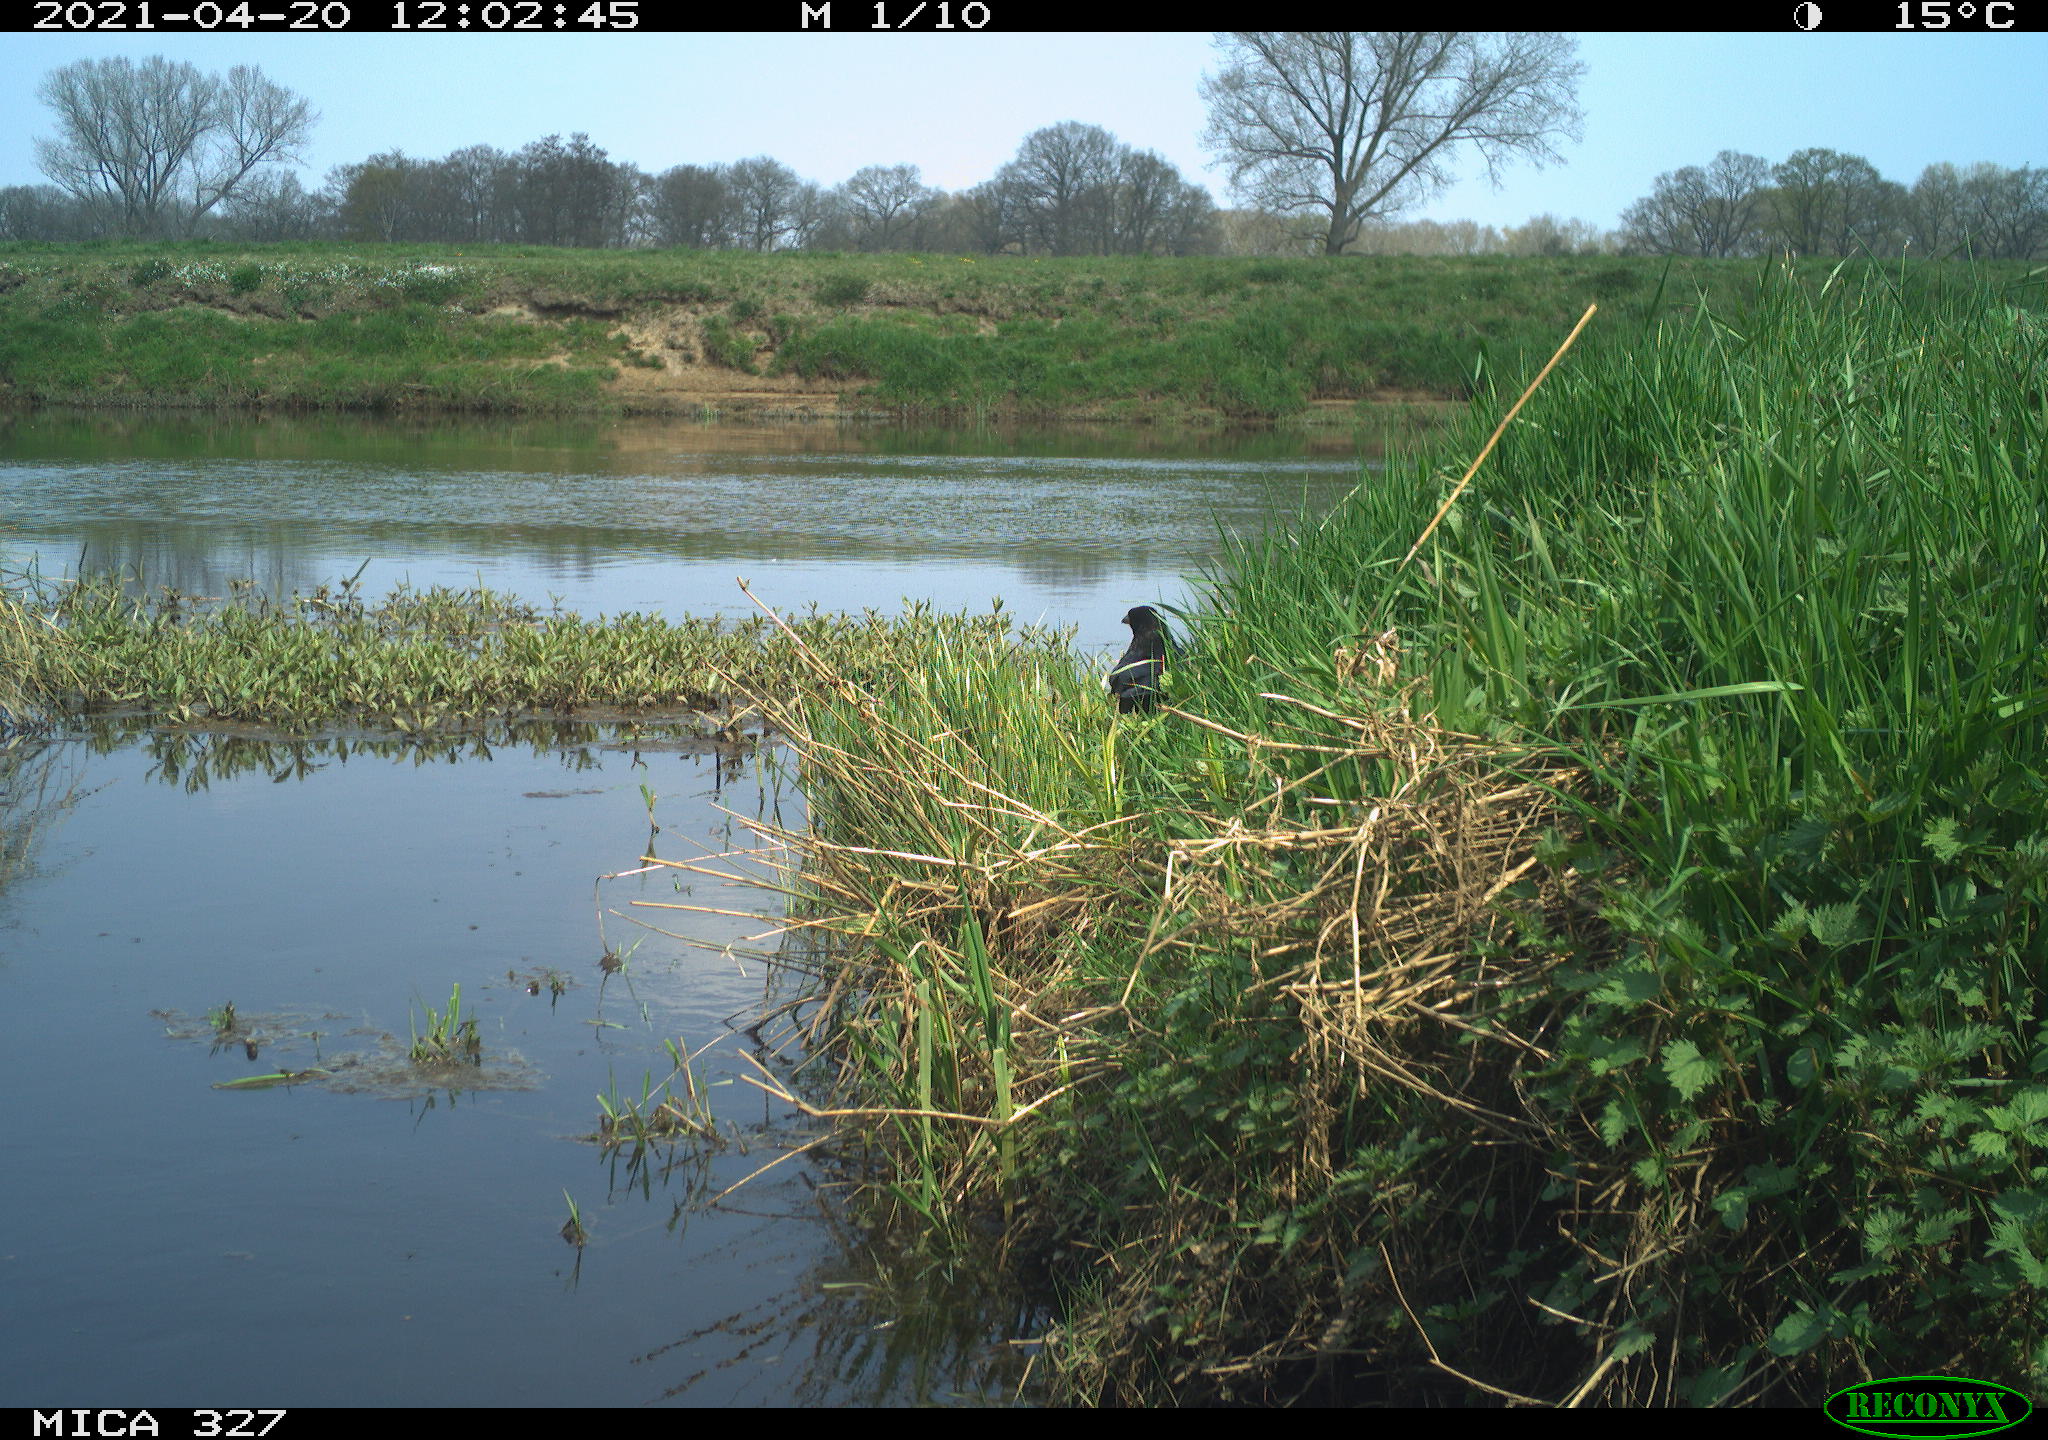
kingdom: Animalia
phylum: Chordata
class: Aves
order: Passeriformes
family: Corvidae
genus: Corvus
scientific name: Corvus corone
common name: Carrion crow
